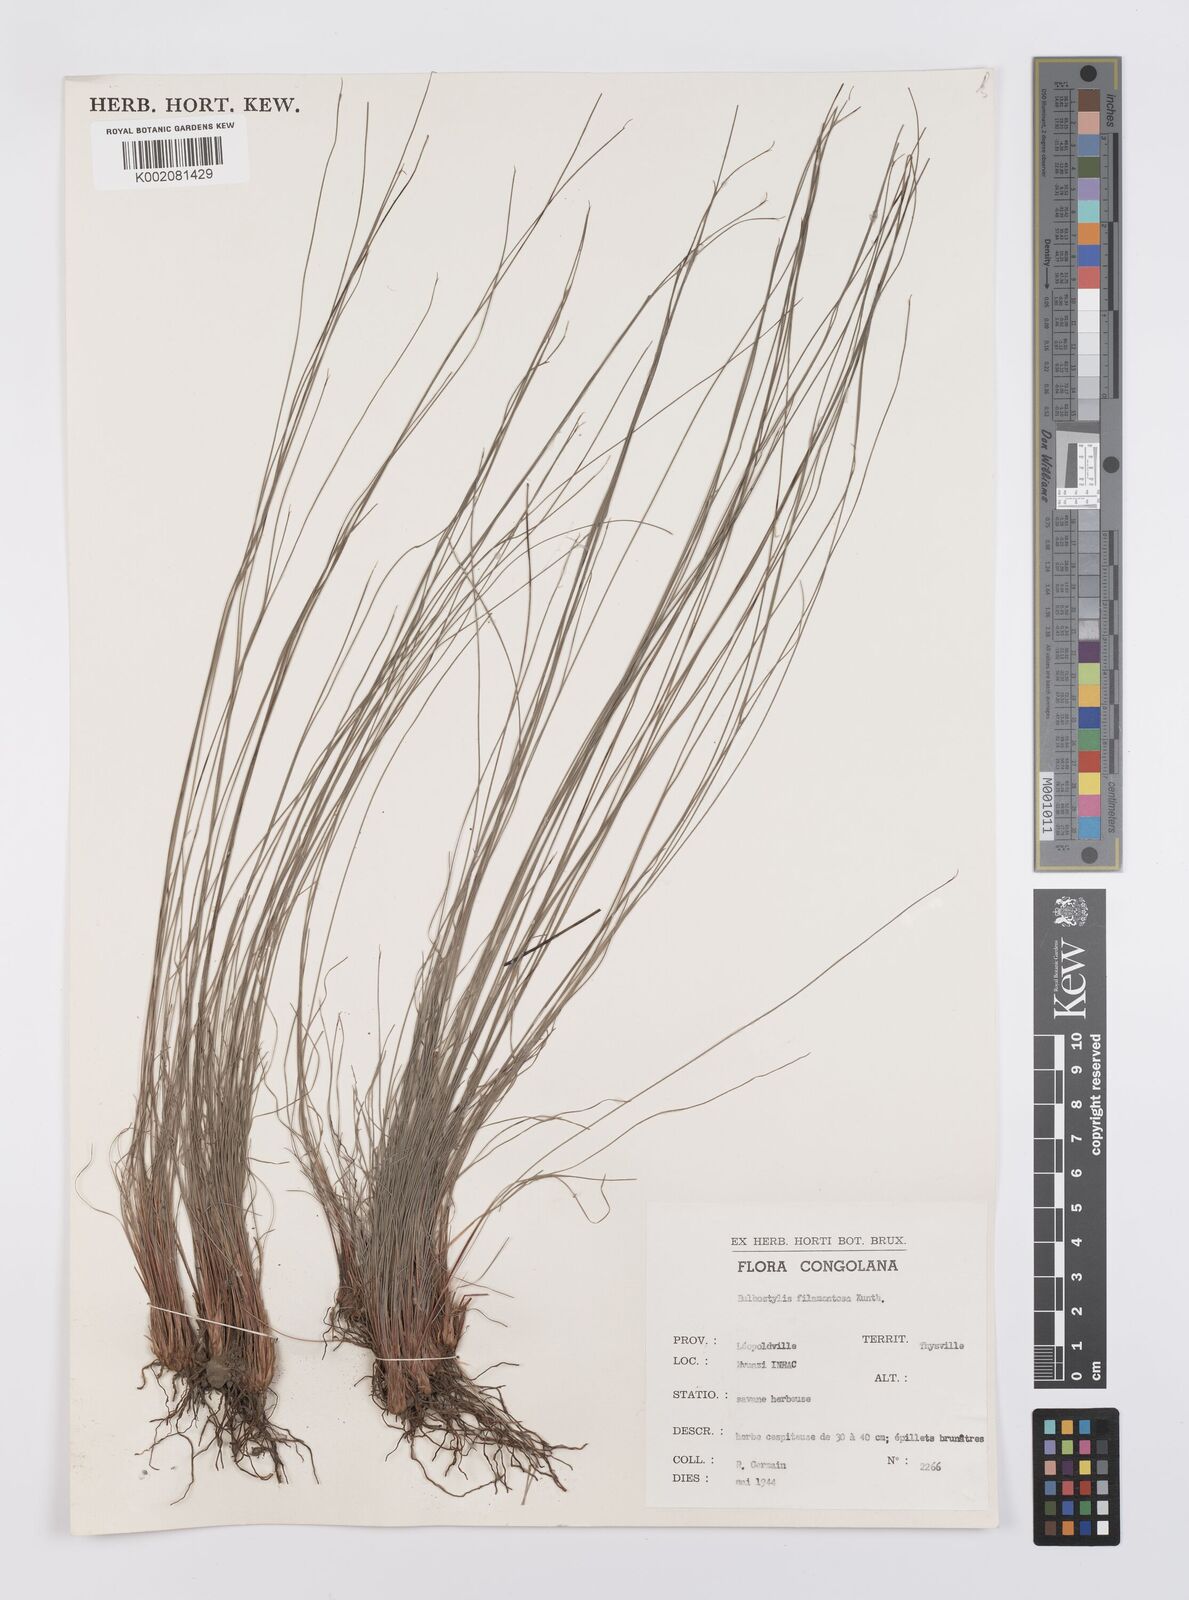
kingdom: Plantae
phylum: Tracheophyta
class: Liliopsida
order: Poales
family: Cyperaceae
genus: Bulbostylis
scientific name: Bulbostylis filamentosa
